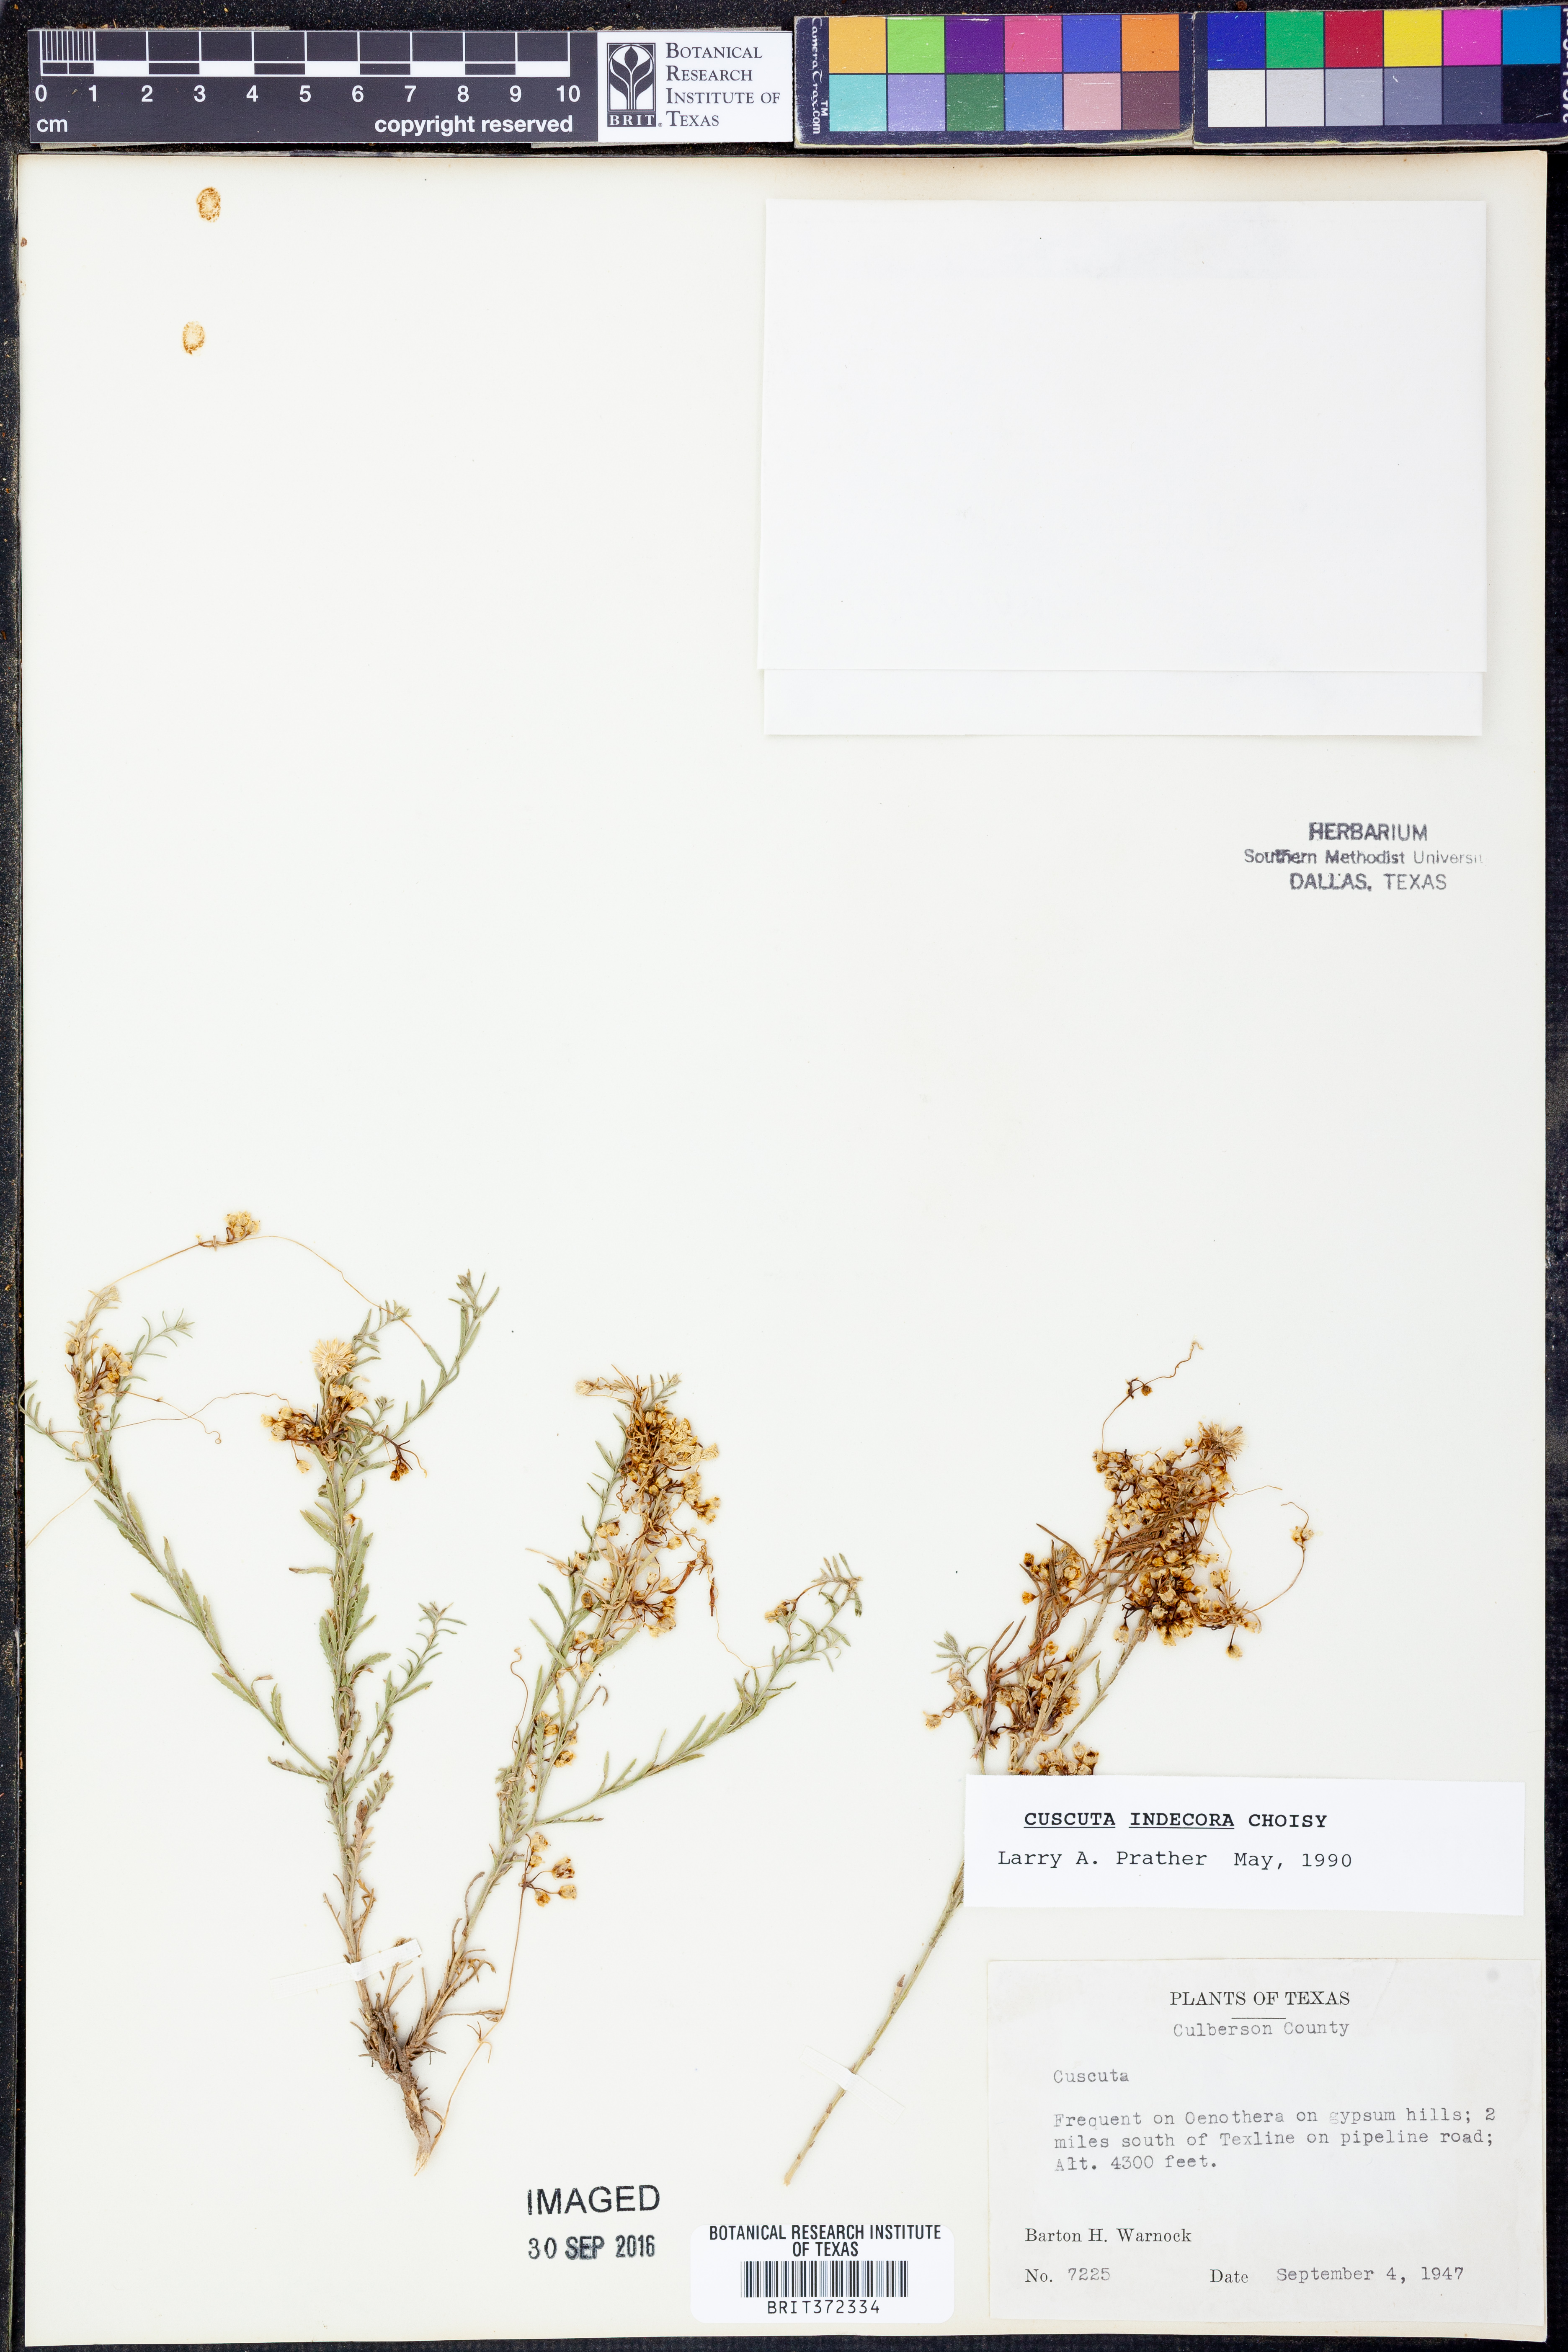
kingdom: Plantae
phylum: Tracheophyta
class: Magnoliopsida
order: Solanales
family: Convolvulaceae
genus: Cuscuta
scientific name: Cuscuta indecora
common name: Large-seed dodder
